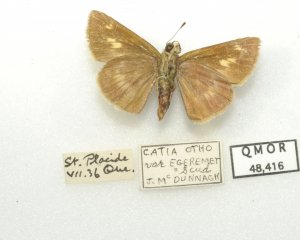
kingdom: Animalia
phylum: Arthropoda
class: Insecta
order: Lepidoptera
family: Hesperiidae
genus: Polites
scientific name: Polites egeremet
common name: Northern Broken-Dash
